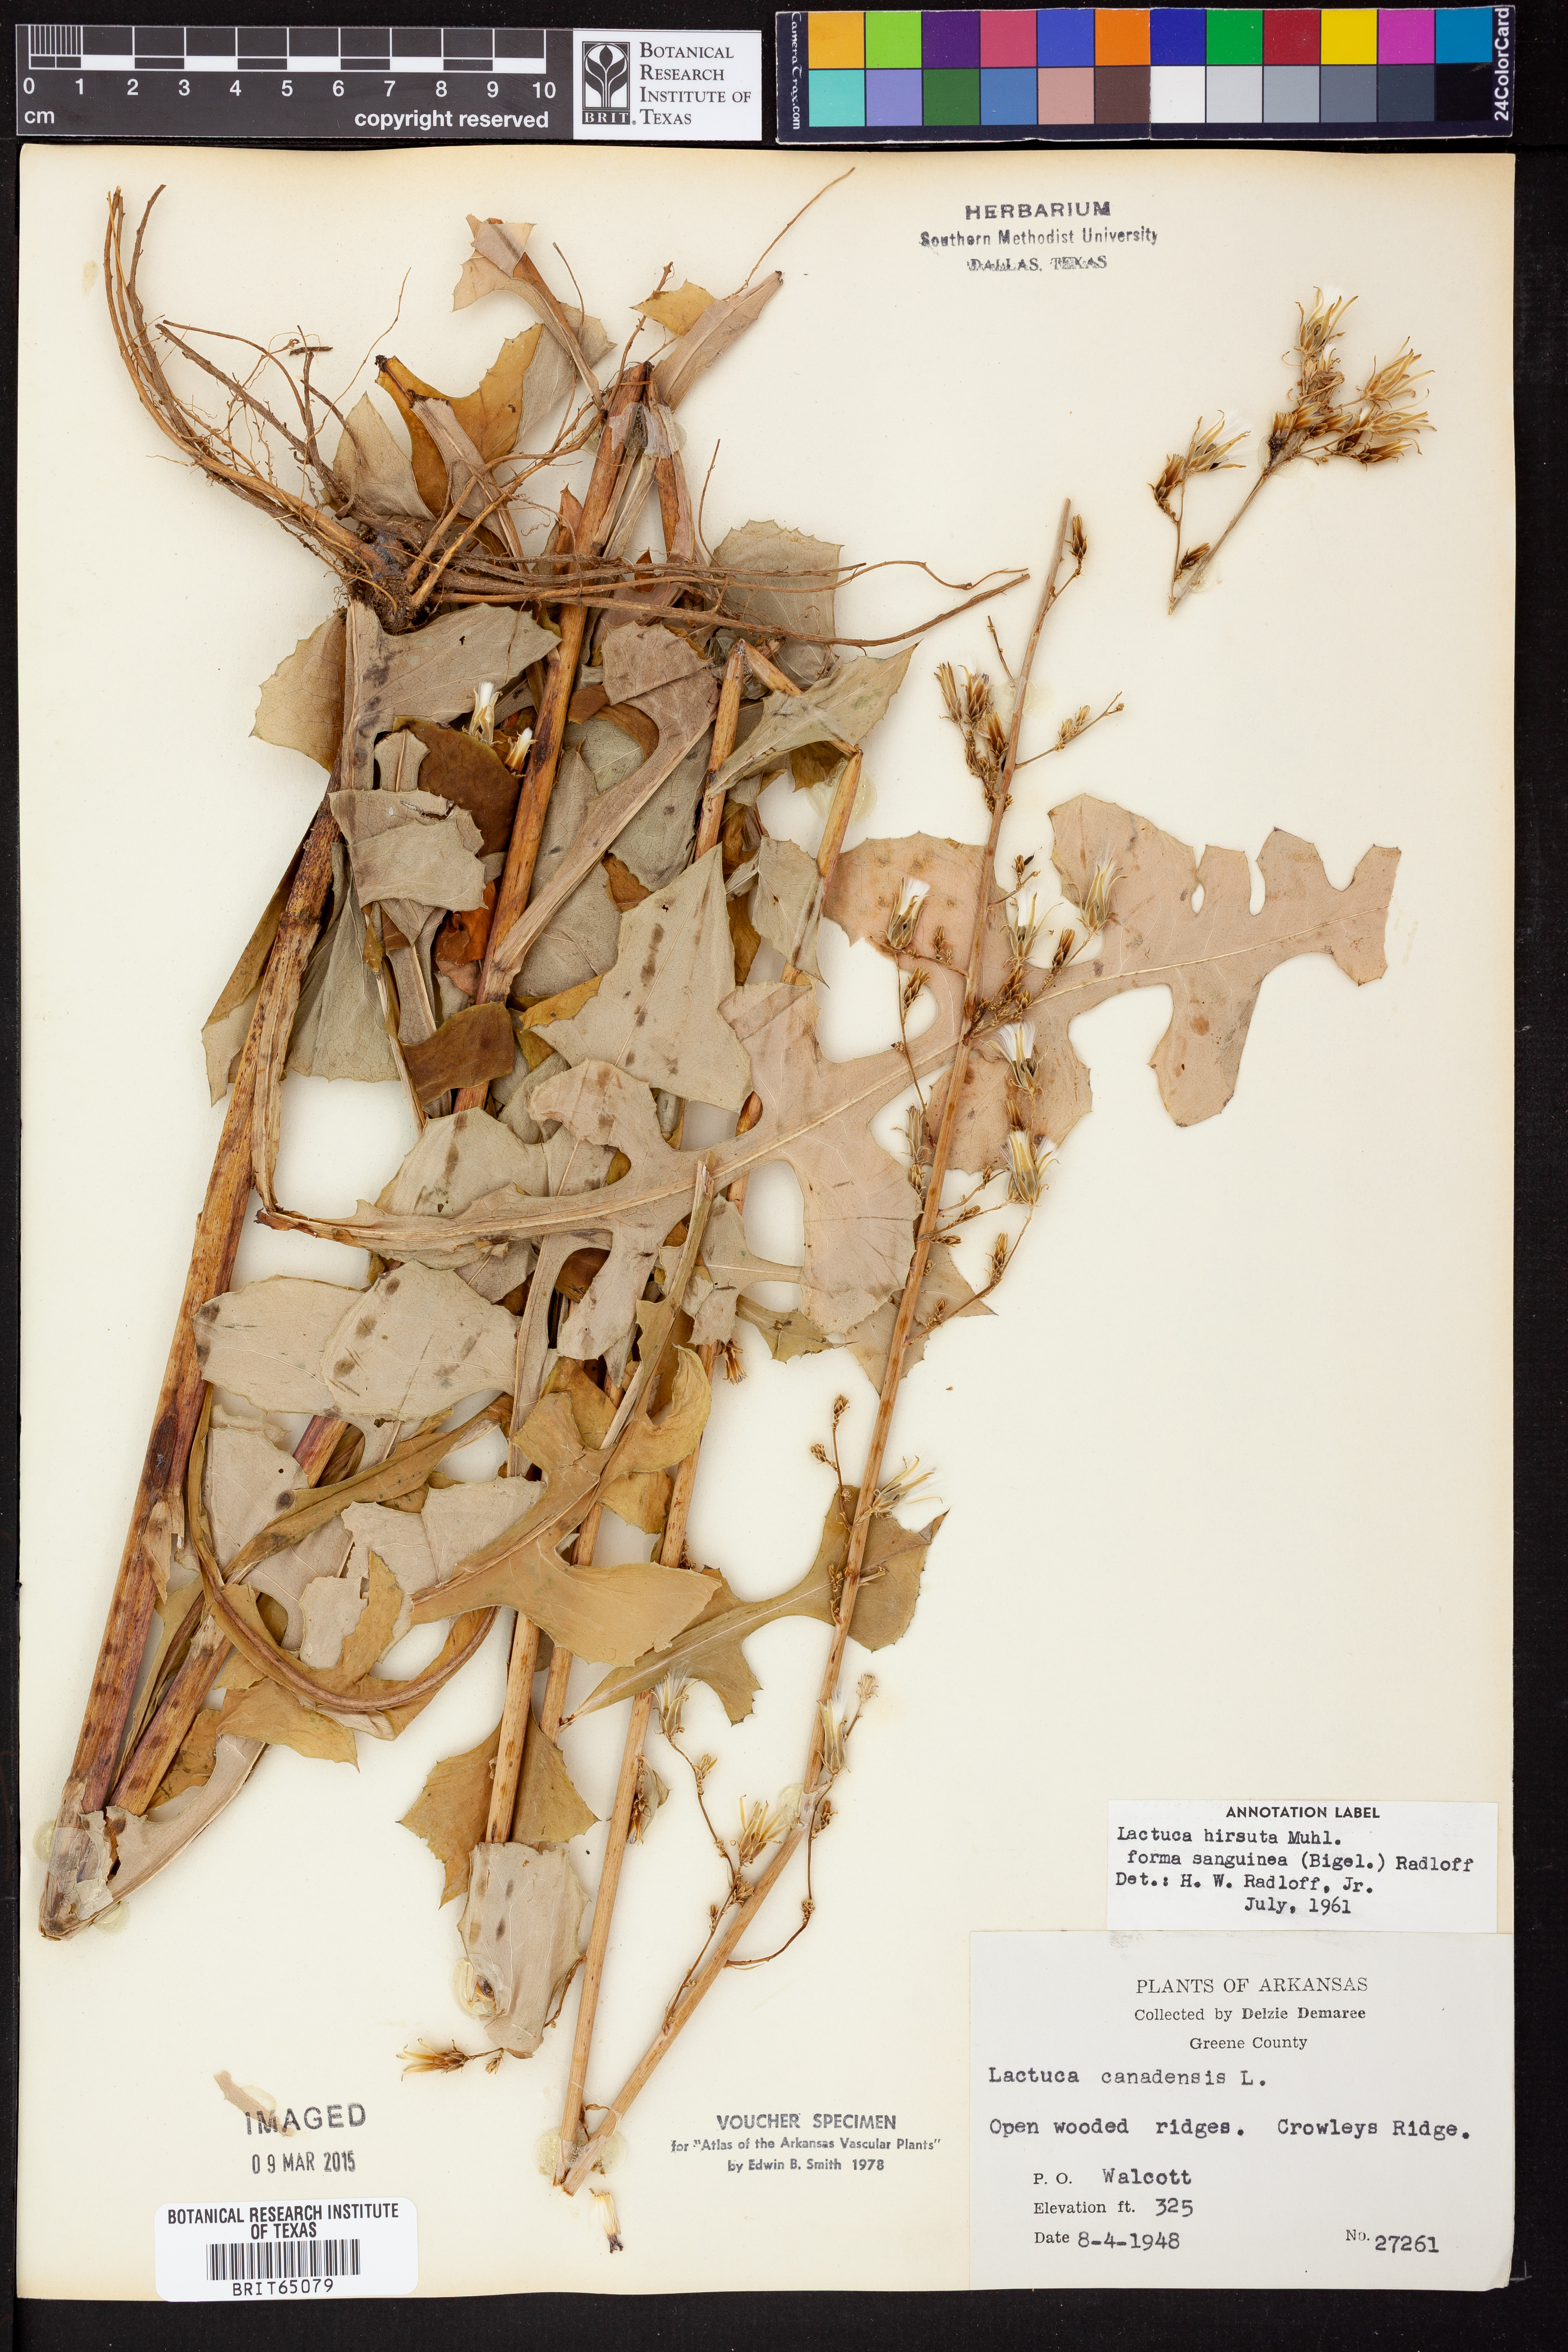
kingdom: Plantae
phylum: Tracheophyta
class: Magnoliopsida
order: Asterales
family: Asteraceae
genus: Lactuca
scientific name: Lactuca hirsuta
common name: Hairy lettuce
